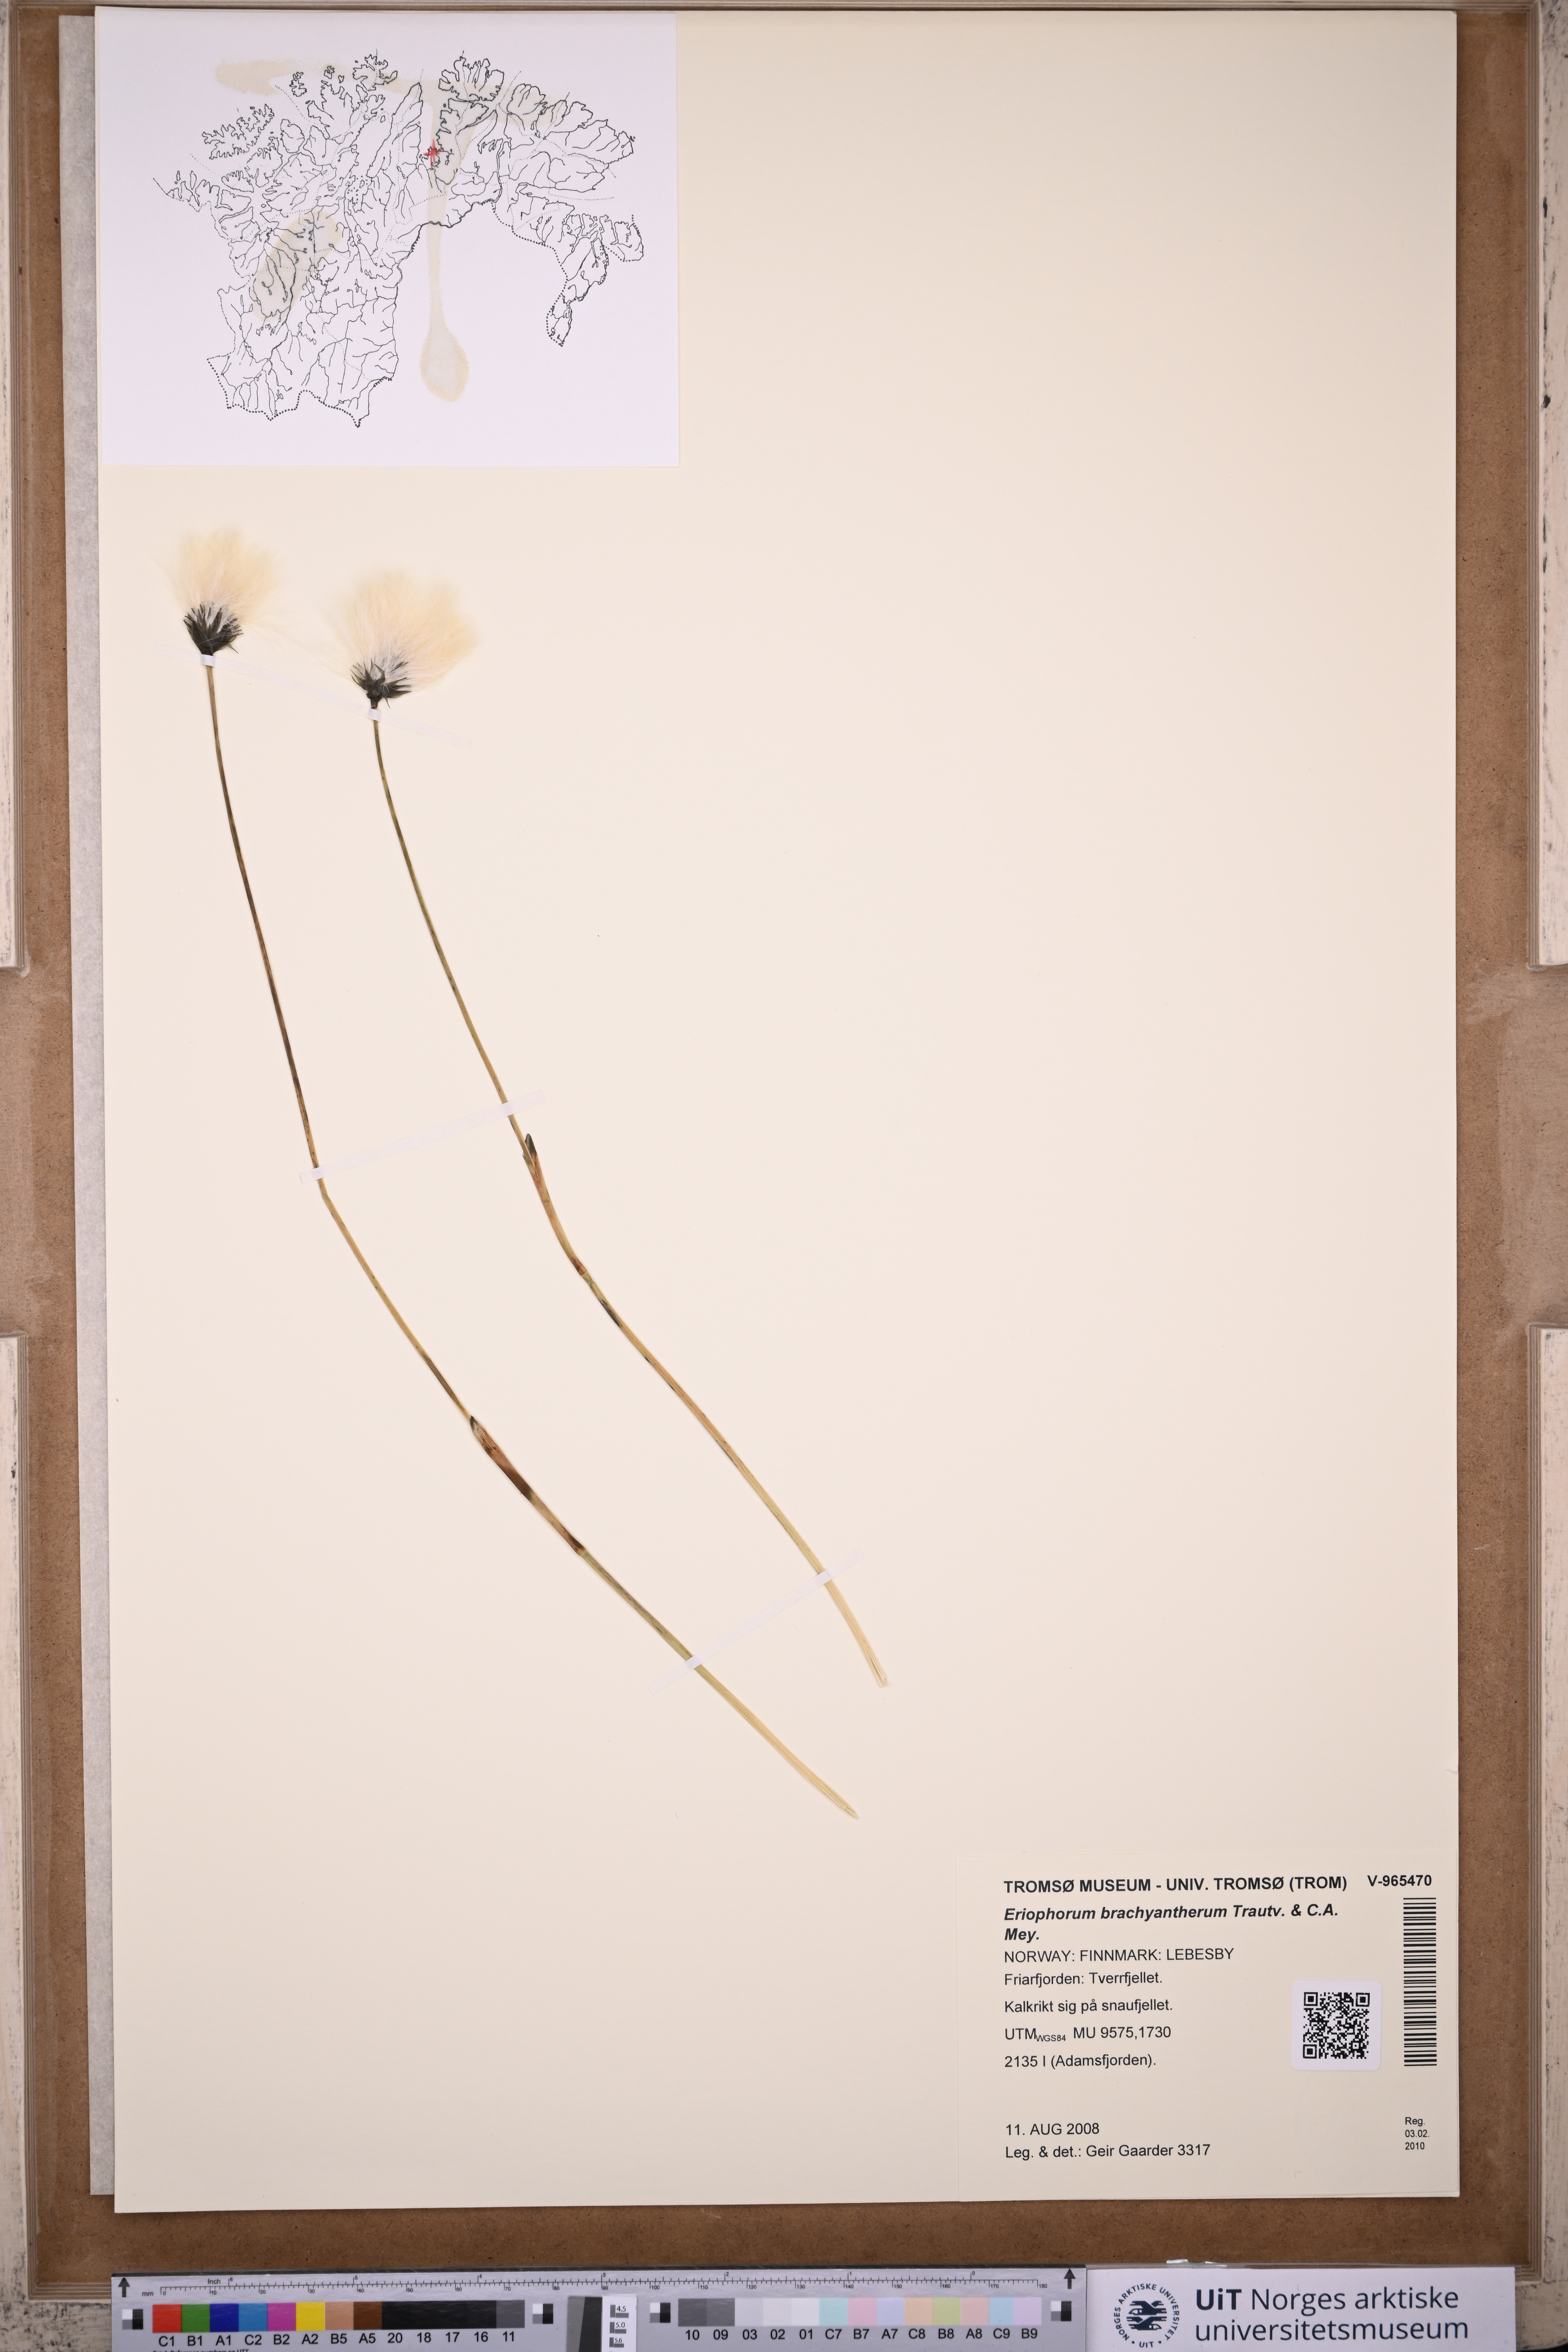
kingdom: Plantae
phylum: Tracheophyta
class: Liliopsida
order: Poales
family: Cyperaceae
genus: Eriophorum
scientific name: Eriophorum brachyantherum
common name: Closed-sheathed cottongrass
